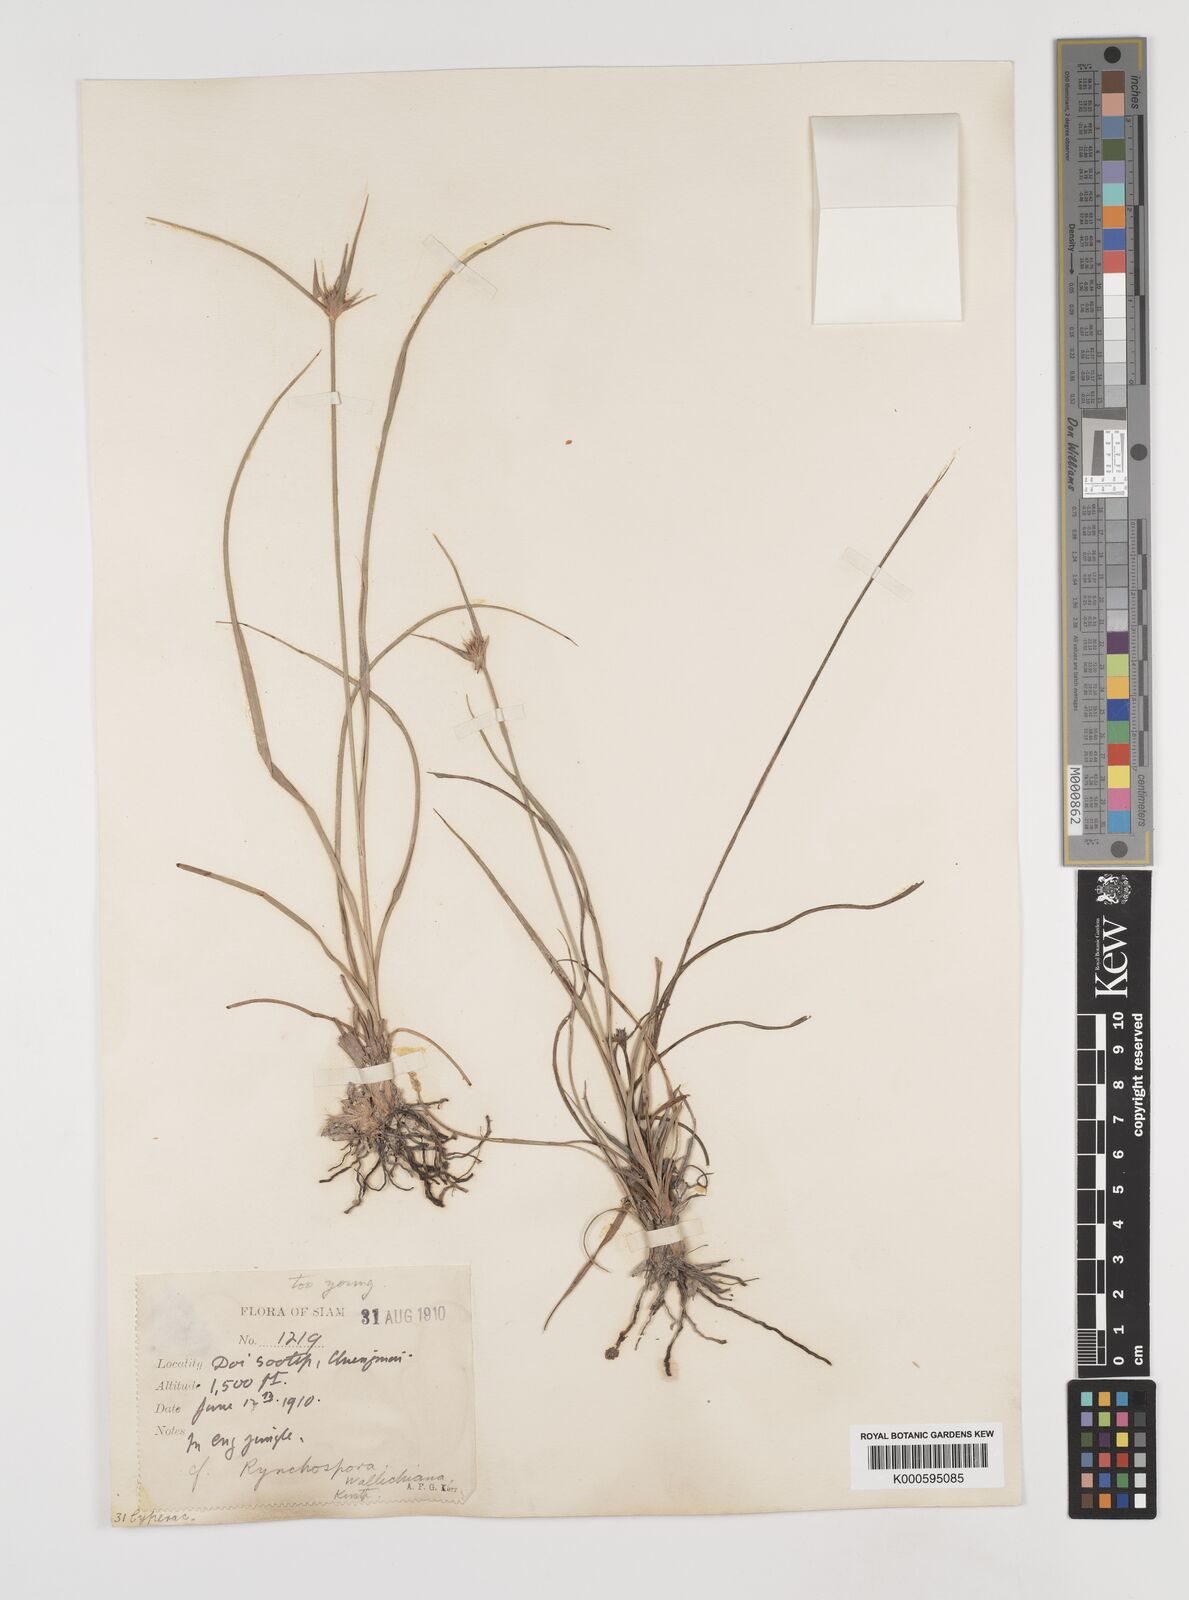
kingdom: Plantae
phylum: Tracheophyta
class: Liliopsida
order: Poales
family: Cyperaceae
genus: Rhynchospora
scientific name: Rhynchospora
